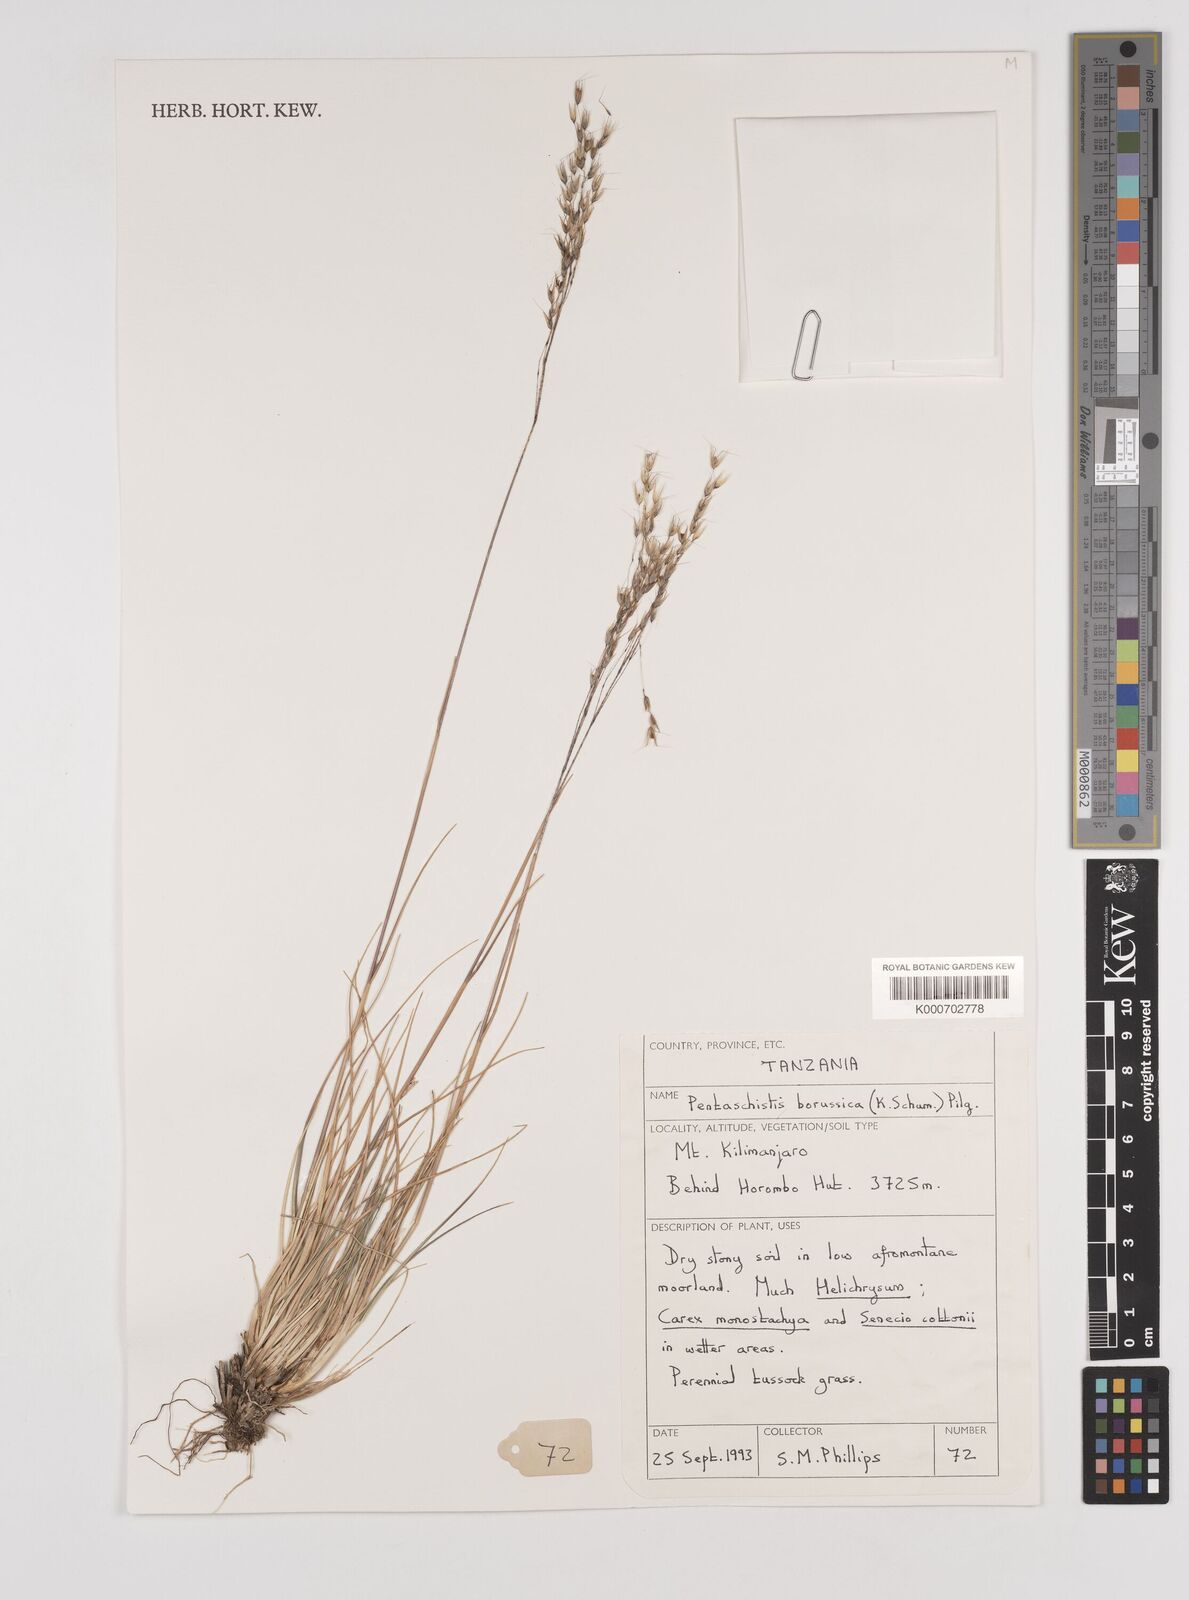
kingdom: Plantae
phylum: Tracheophyta
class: Liliopsida
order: Poales
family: Poaceae
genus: Pentameris
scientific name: Pentameris borussica
